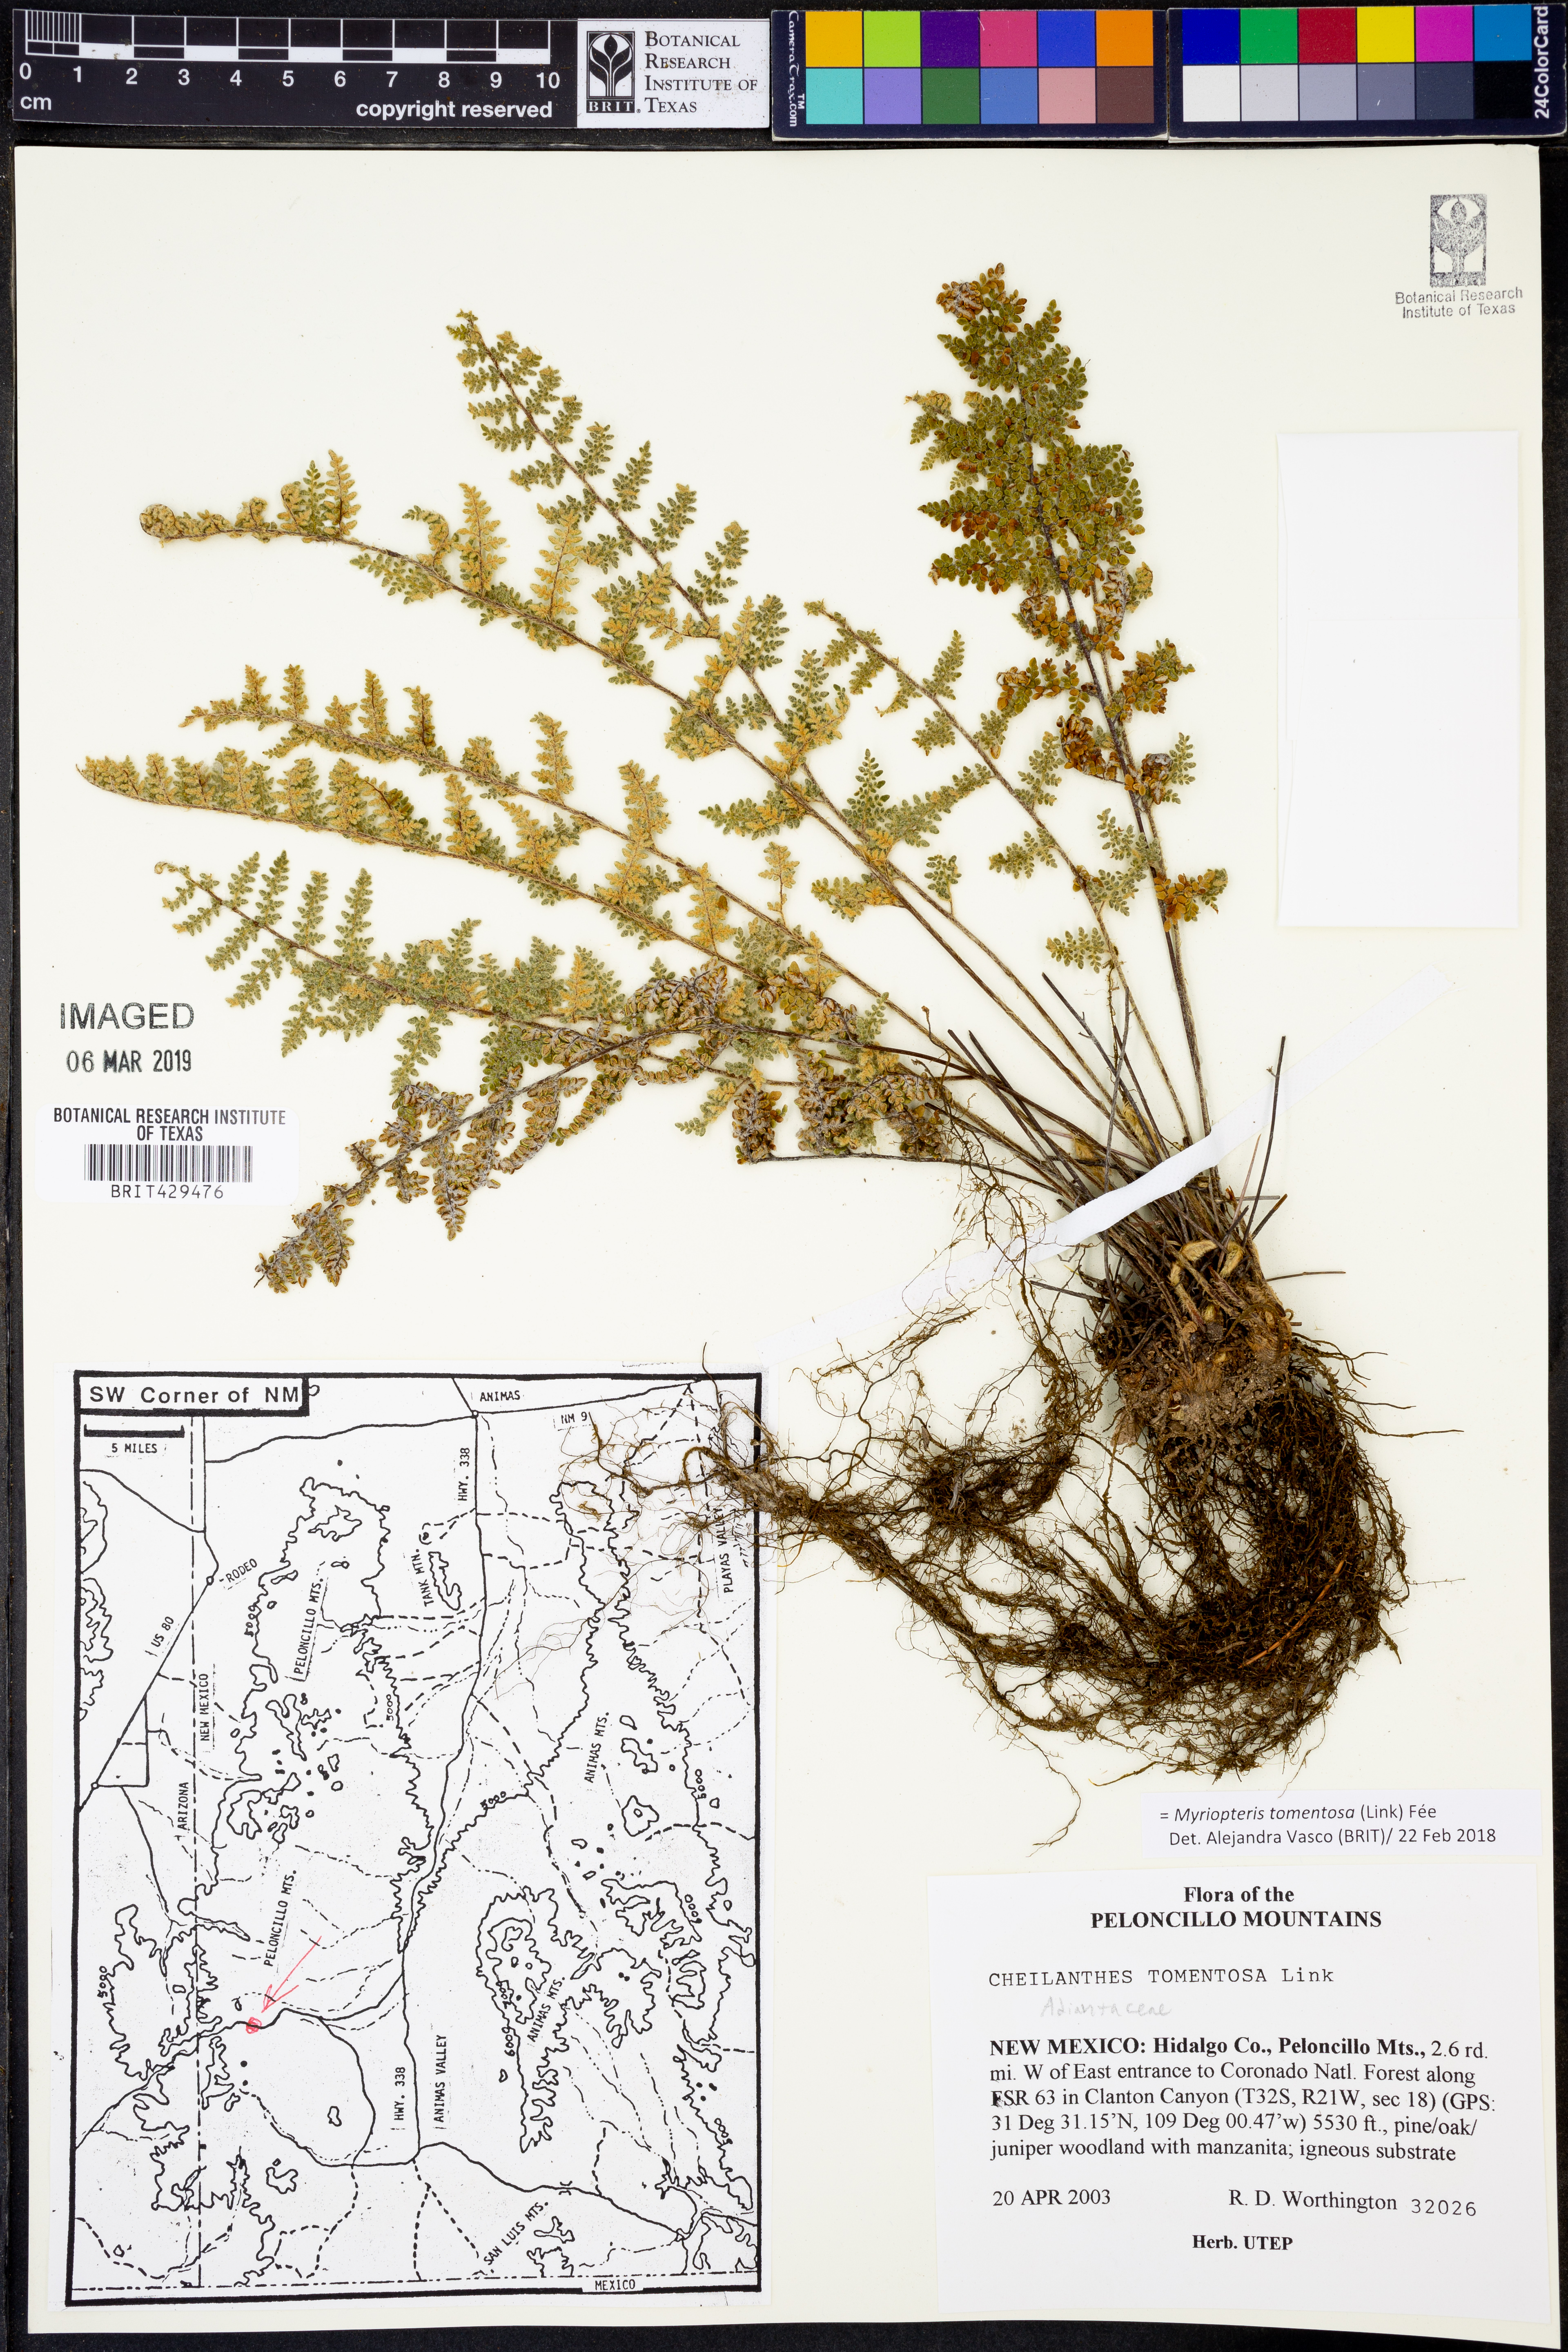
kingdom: Plantae
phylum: Tracheophyta
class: Polypodiopsida
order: Polypodiales
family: Pteridaceae
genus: Myriopteris
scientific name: Myriopteris tomentosa
